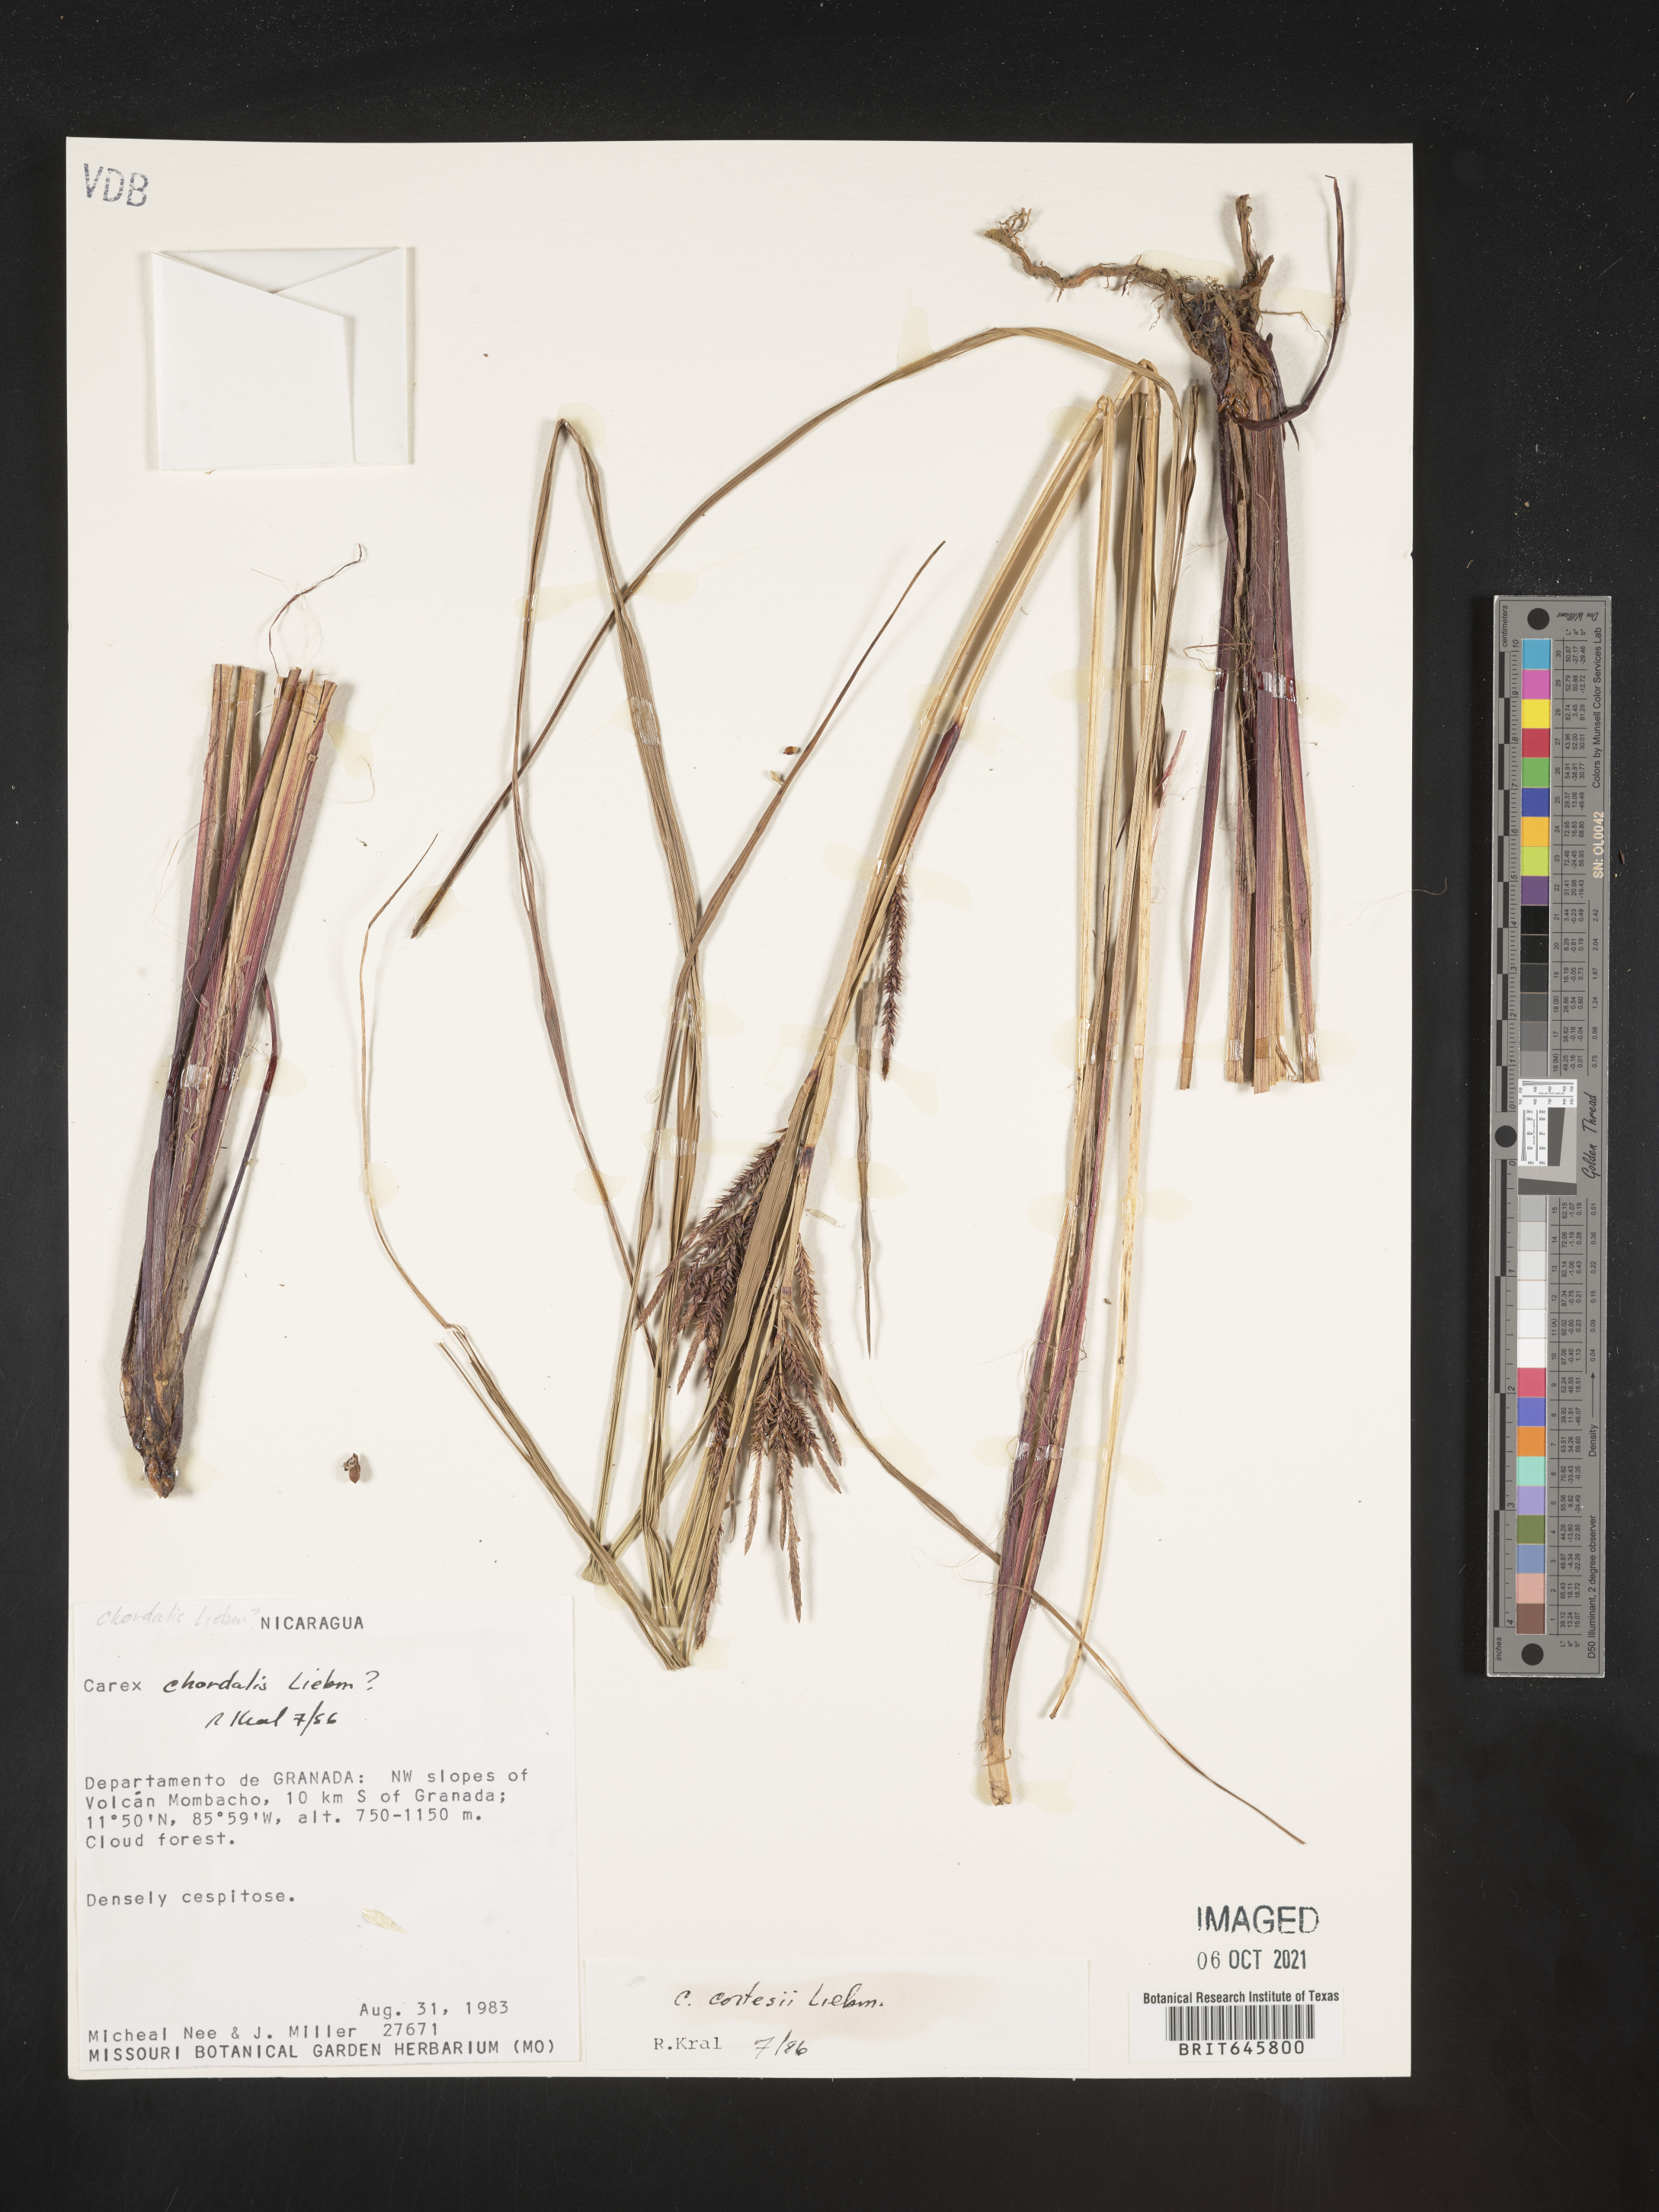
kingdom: Plantae
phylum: Tracheophyta
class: Liliopsida
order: Poales
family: Cyperaceae
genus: Carex
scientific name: Carex cortesii
